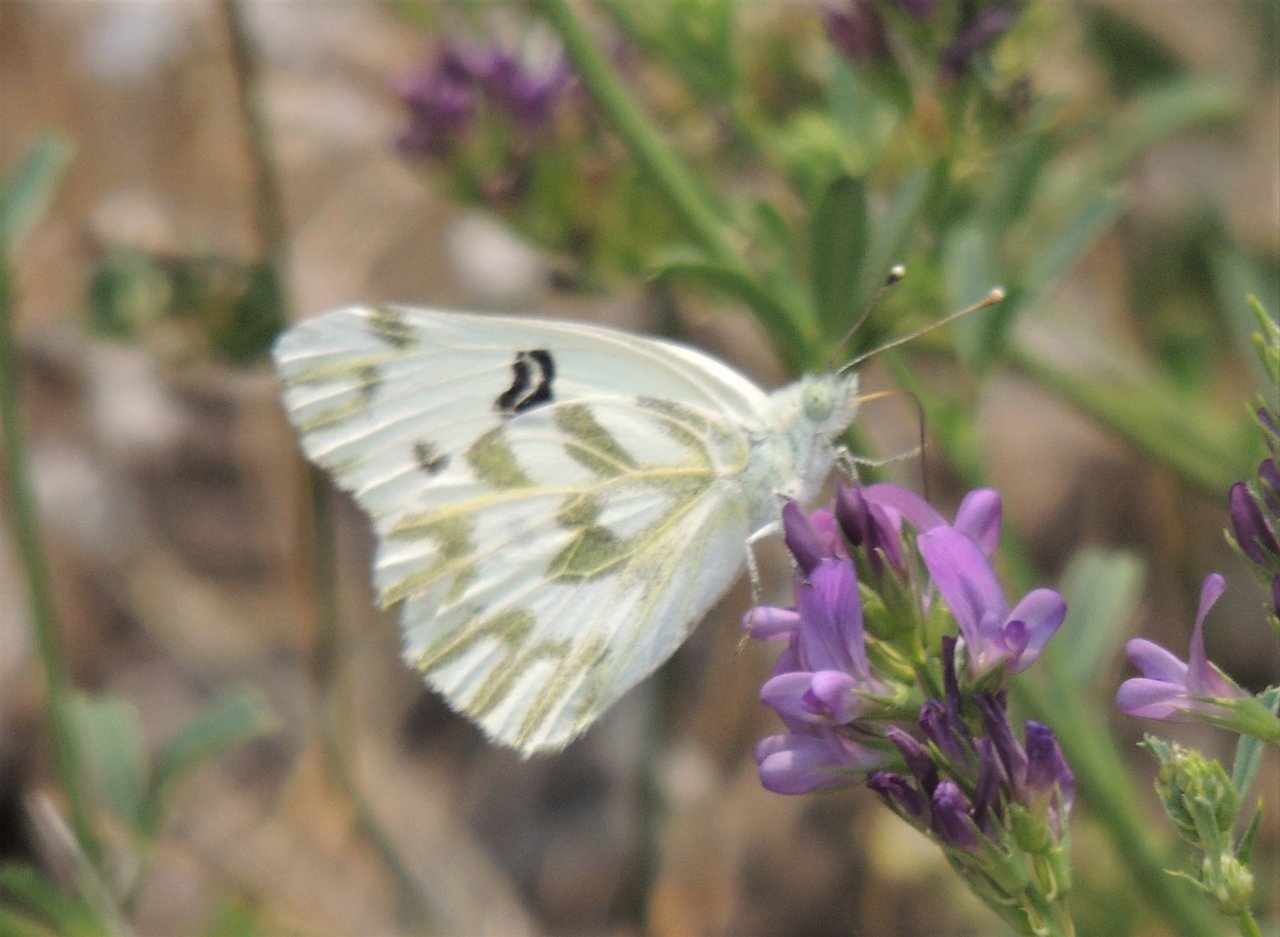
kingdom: Animalia
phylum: Arthropoda
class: Insecta
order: Lepidoptera
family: Pieridae
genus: Pontia
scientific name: Pontia beckerii
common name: Becker's White
